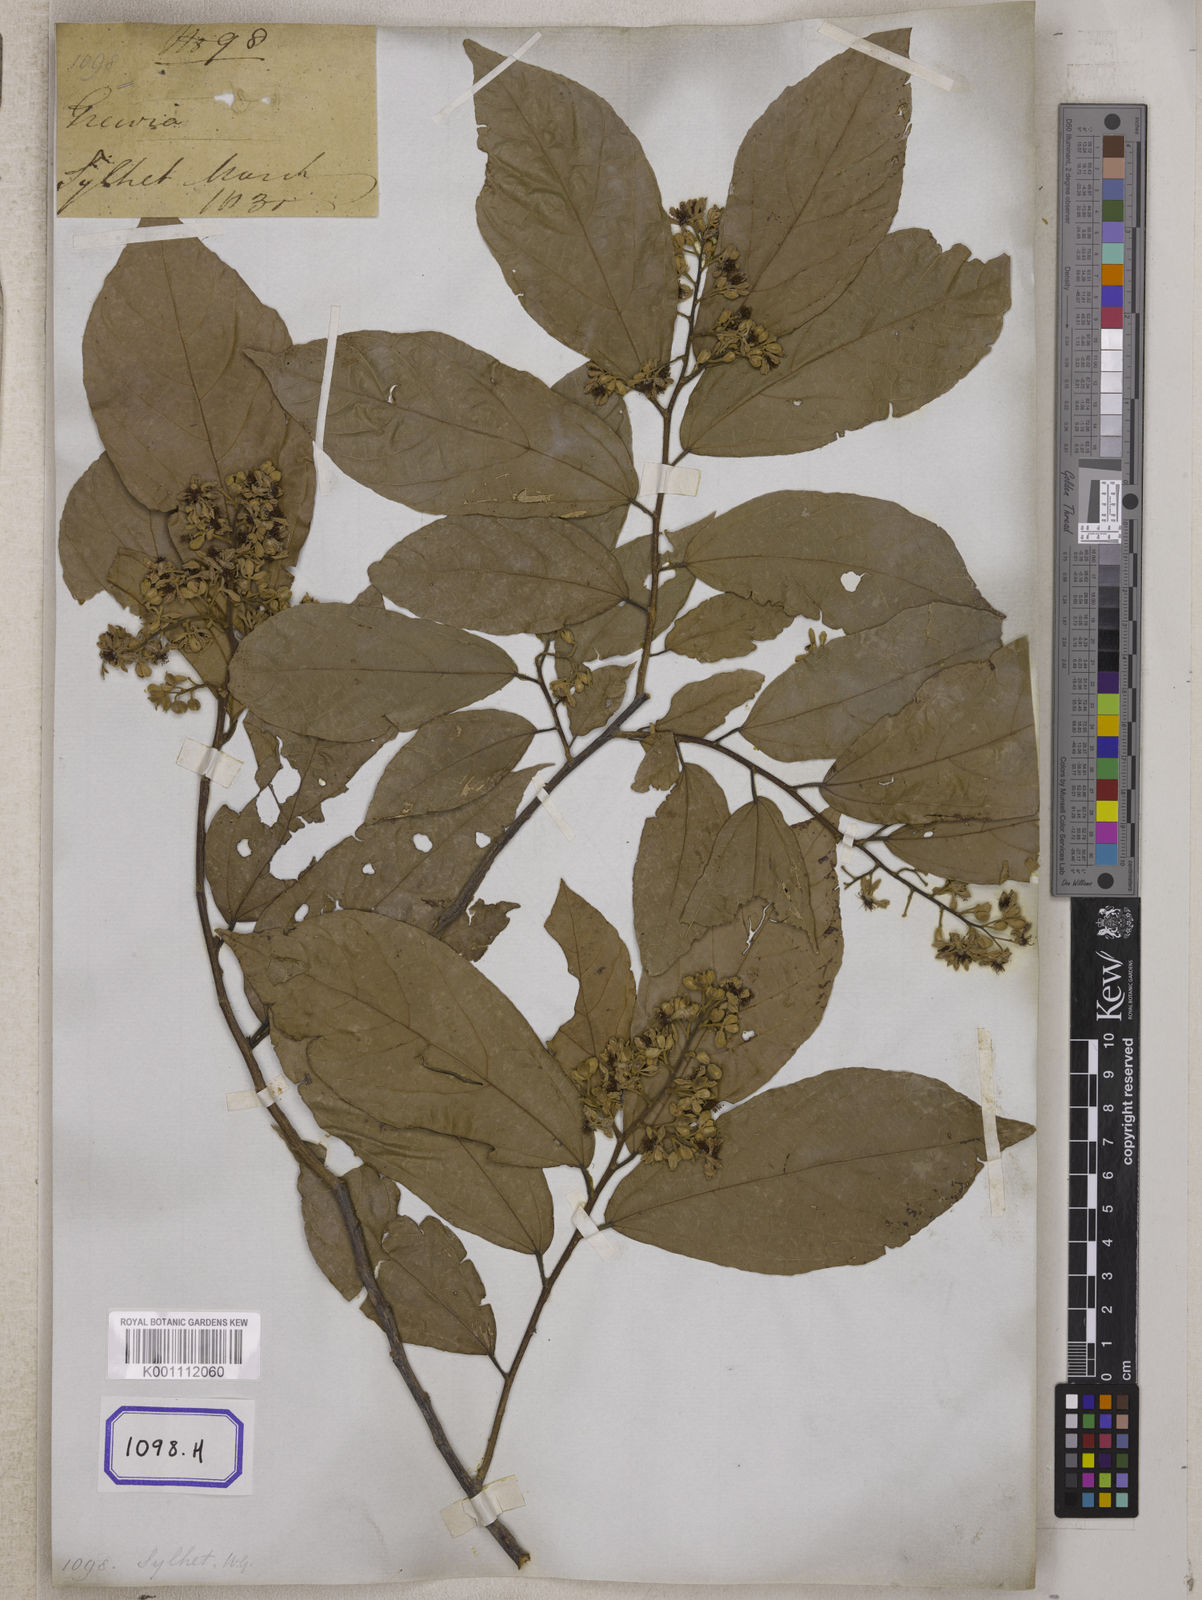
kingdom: Plantae
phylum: Tracheophyta
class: Magnoliopsida
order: Malvales
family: Malvaceae
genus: Microcos
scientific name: Microcos paniculata
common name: Microcos
